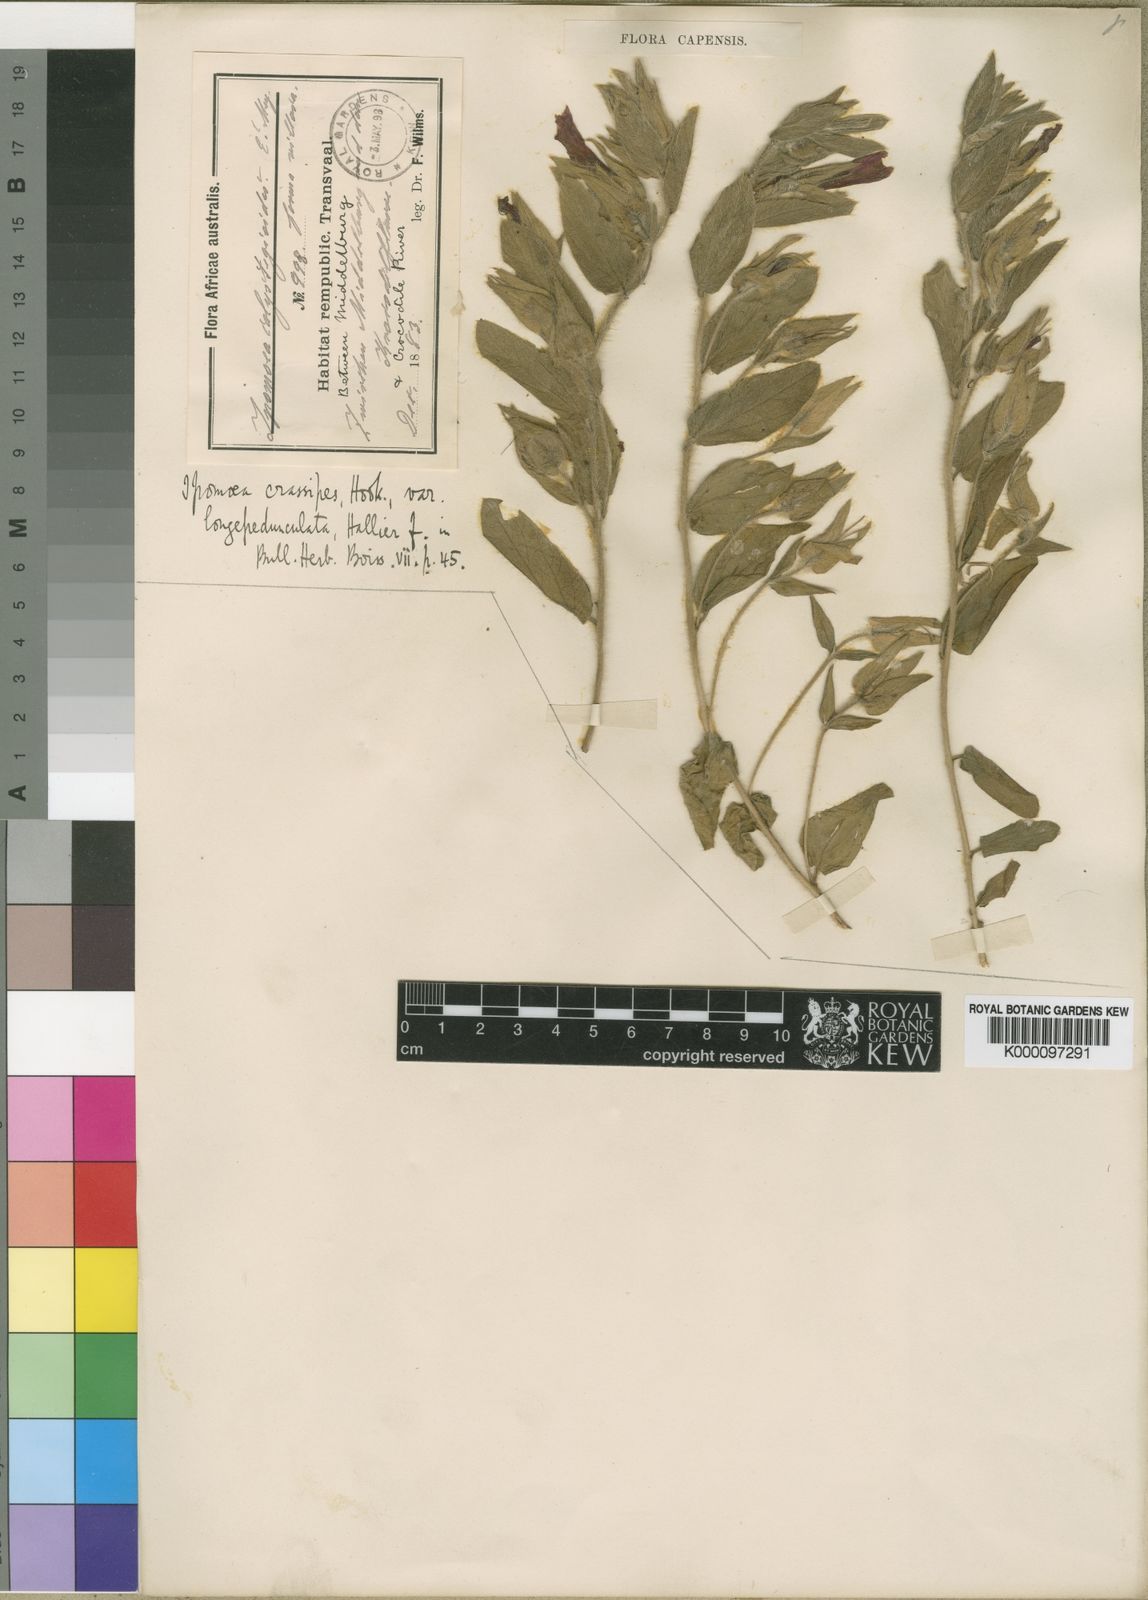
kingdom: Plantae
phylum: Tracheophyta
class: Magnoliopsida
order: Solanales
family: Convolvulaceae
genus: Ipomoea
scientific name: Ipomoea crassipes
